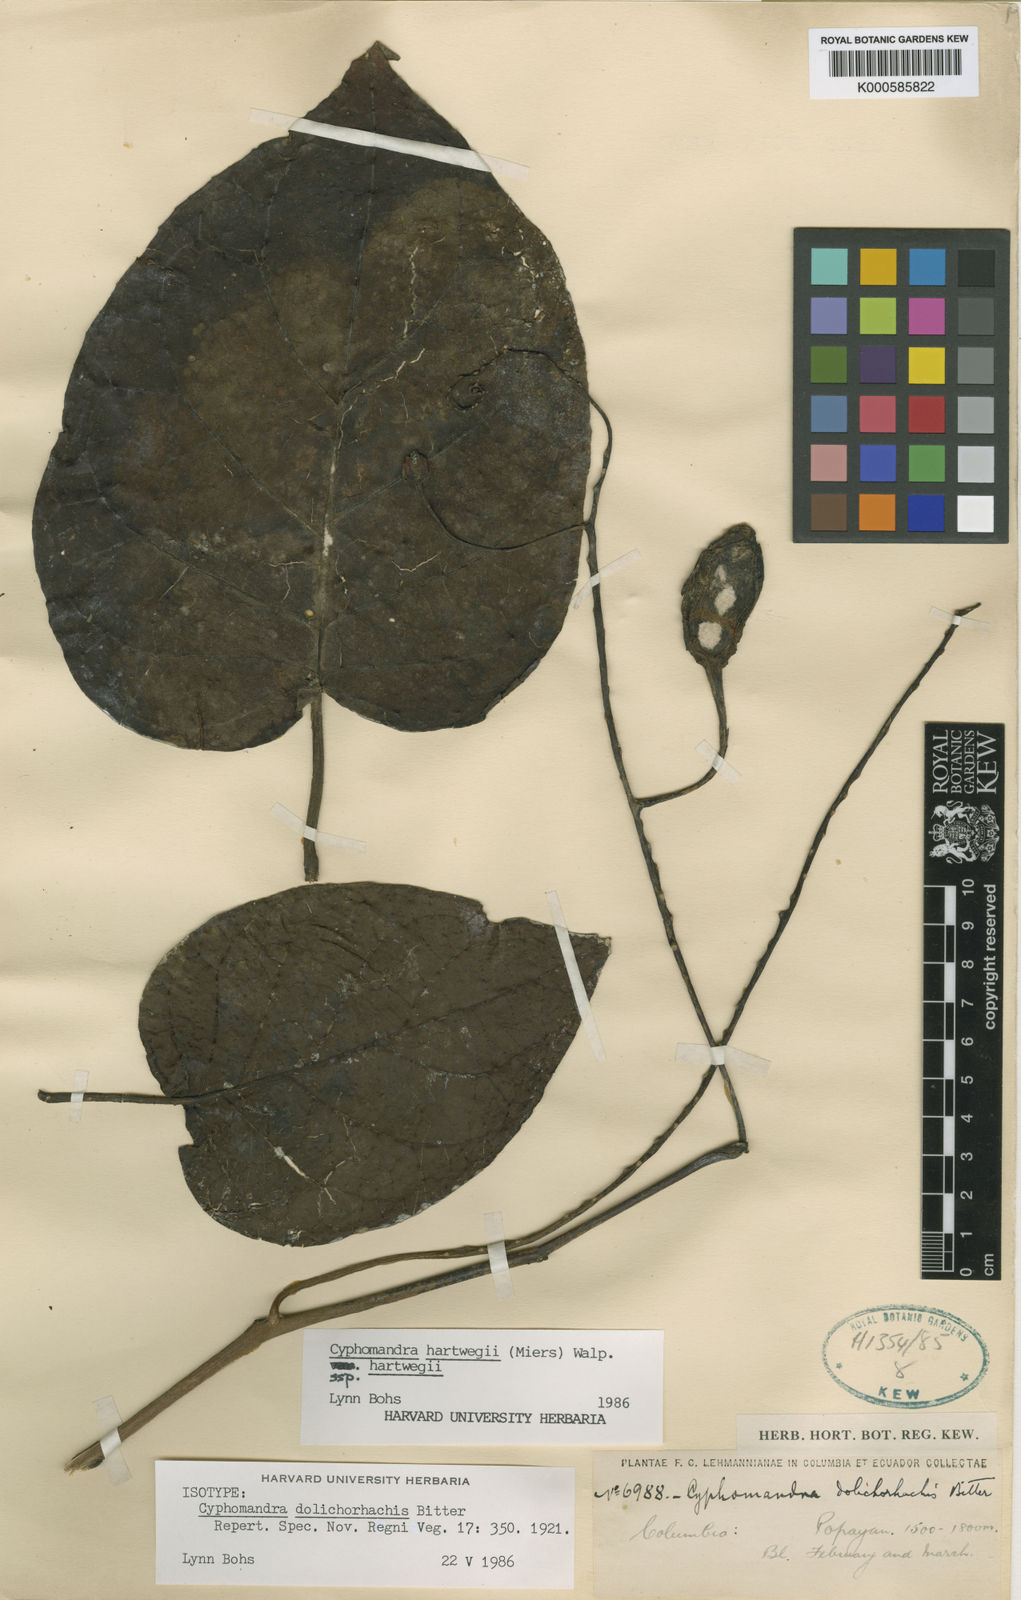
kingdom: Plantae
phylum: Tracheophyta
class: Magnoliopsida
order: Solanales
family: Solanaceae
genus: Solanum
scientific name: Solanum splendens
